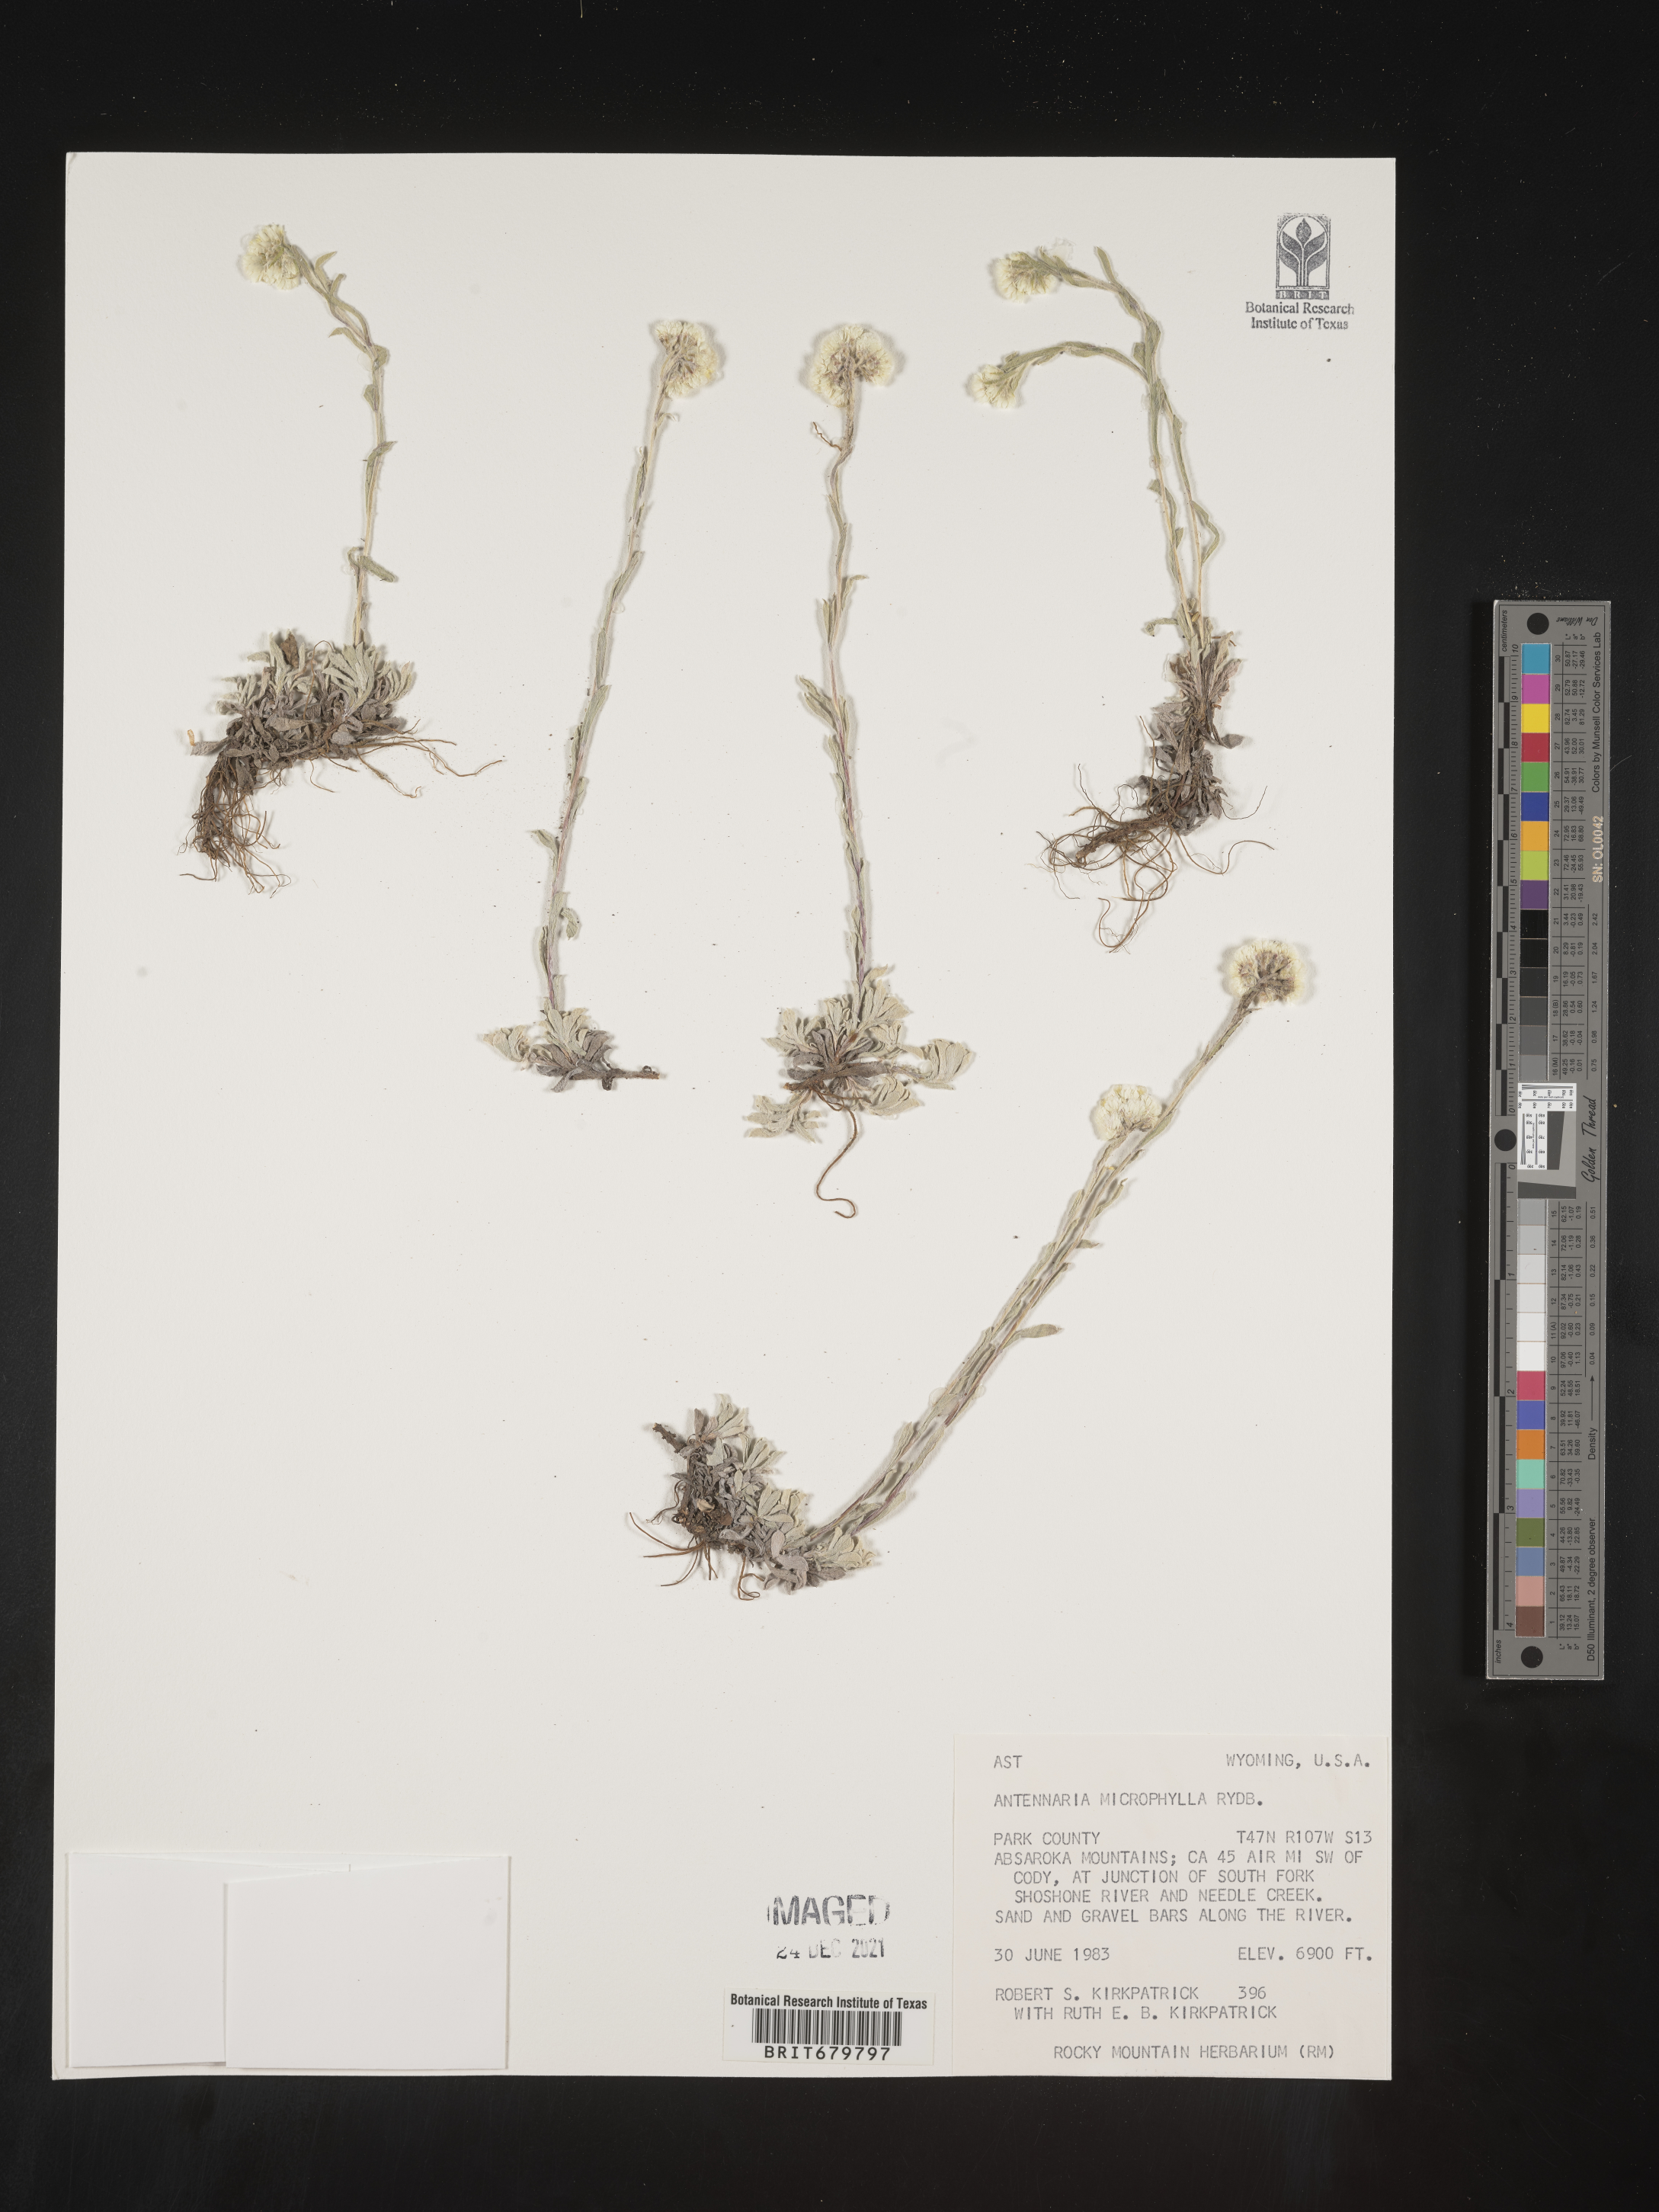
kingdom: Plantae
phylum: Tracheophyta
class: Magnoliopsida
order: Asterales
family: Asteraceae
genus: Antennaria
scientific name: Antennaria microphylla
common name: Littleleaf pussytoes
